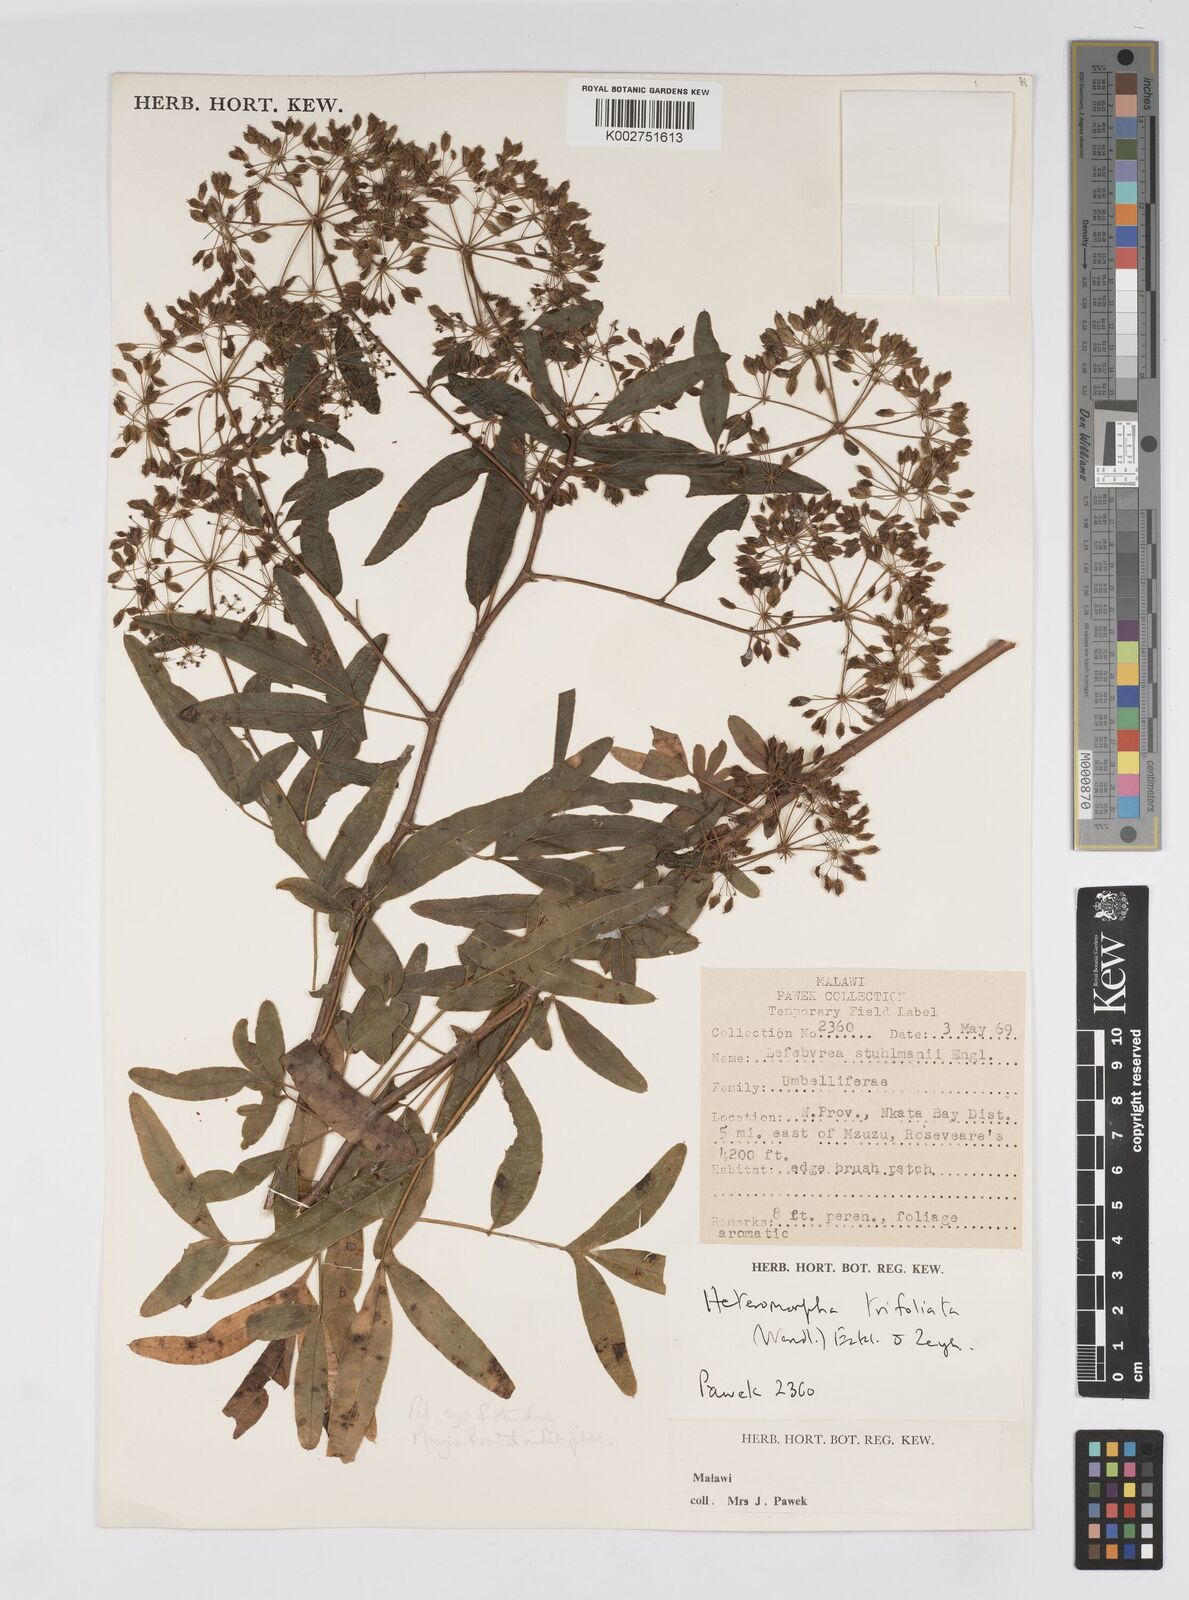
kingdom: Plantae
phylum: Tracheophyta
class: Magnoliopsida
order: Apiales
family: Apiaceae
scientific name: Apiaceae
